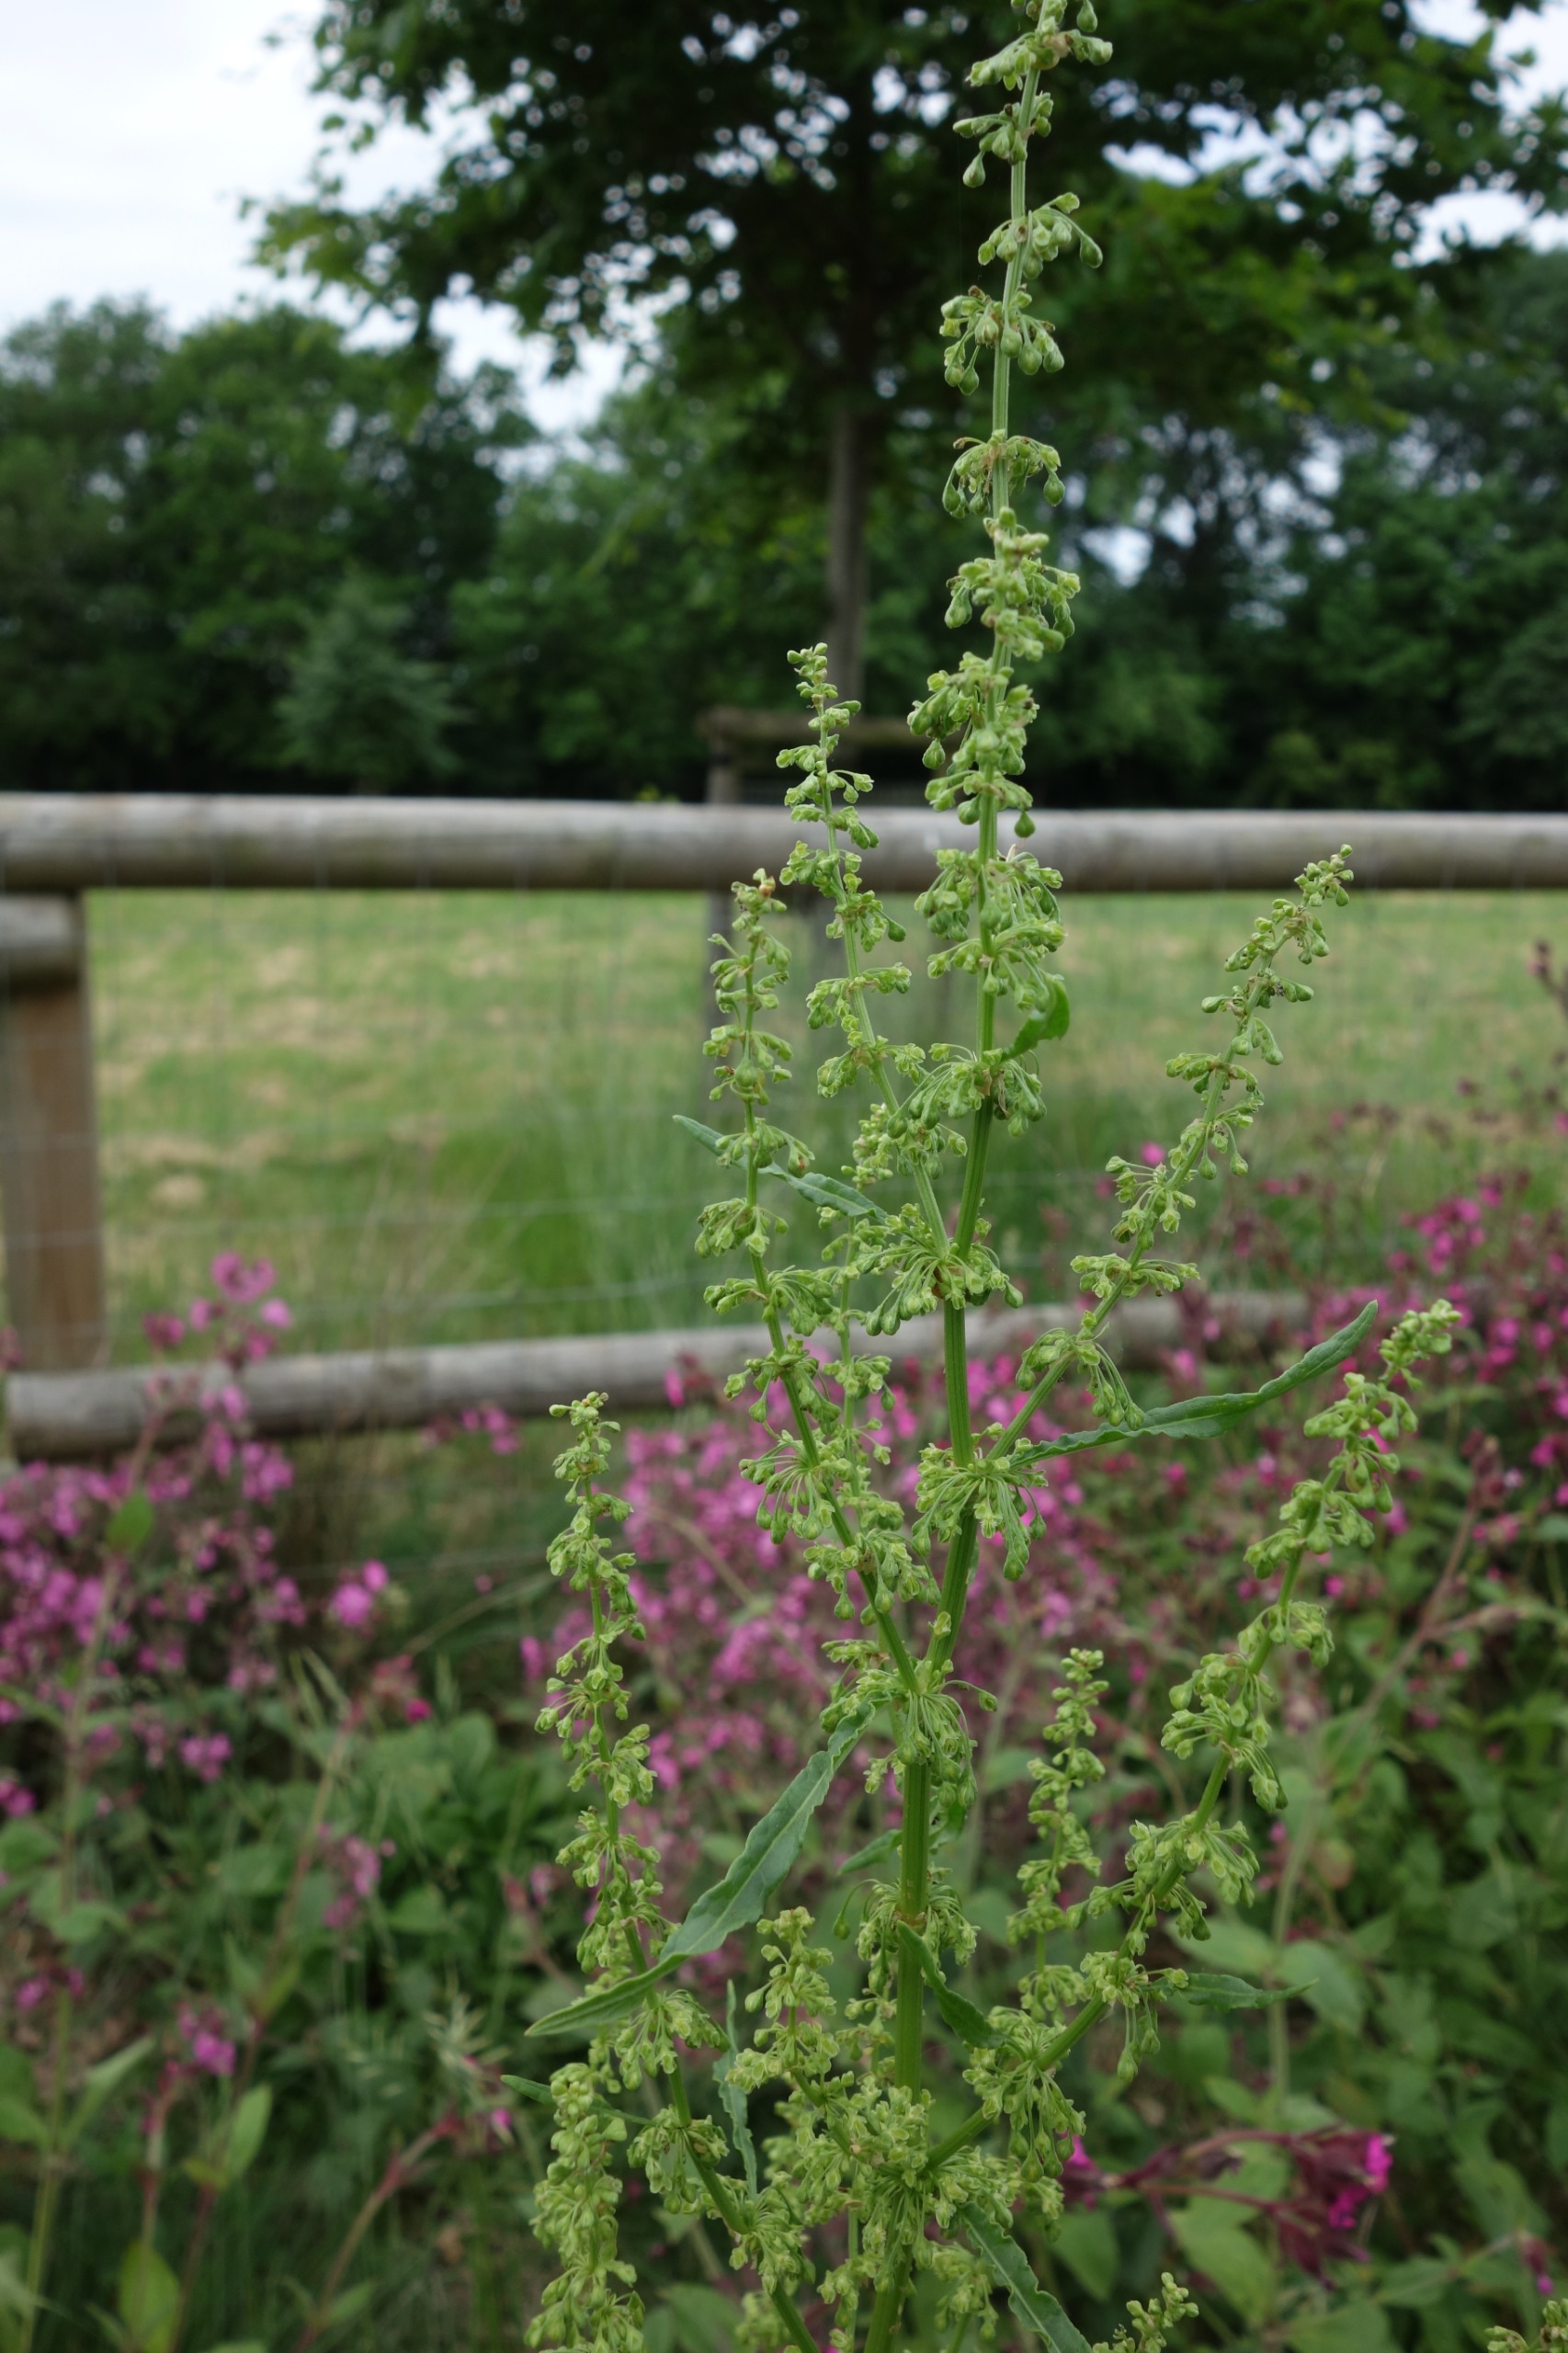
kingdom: Plantae
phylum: Tracheophyta
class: Magnoliopsida
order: Caryophyllales
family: Polygonaceae
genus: Rumex
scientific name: Rumex crispus
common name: Kruset skræppe
